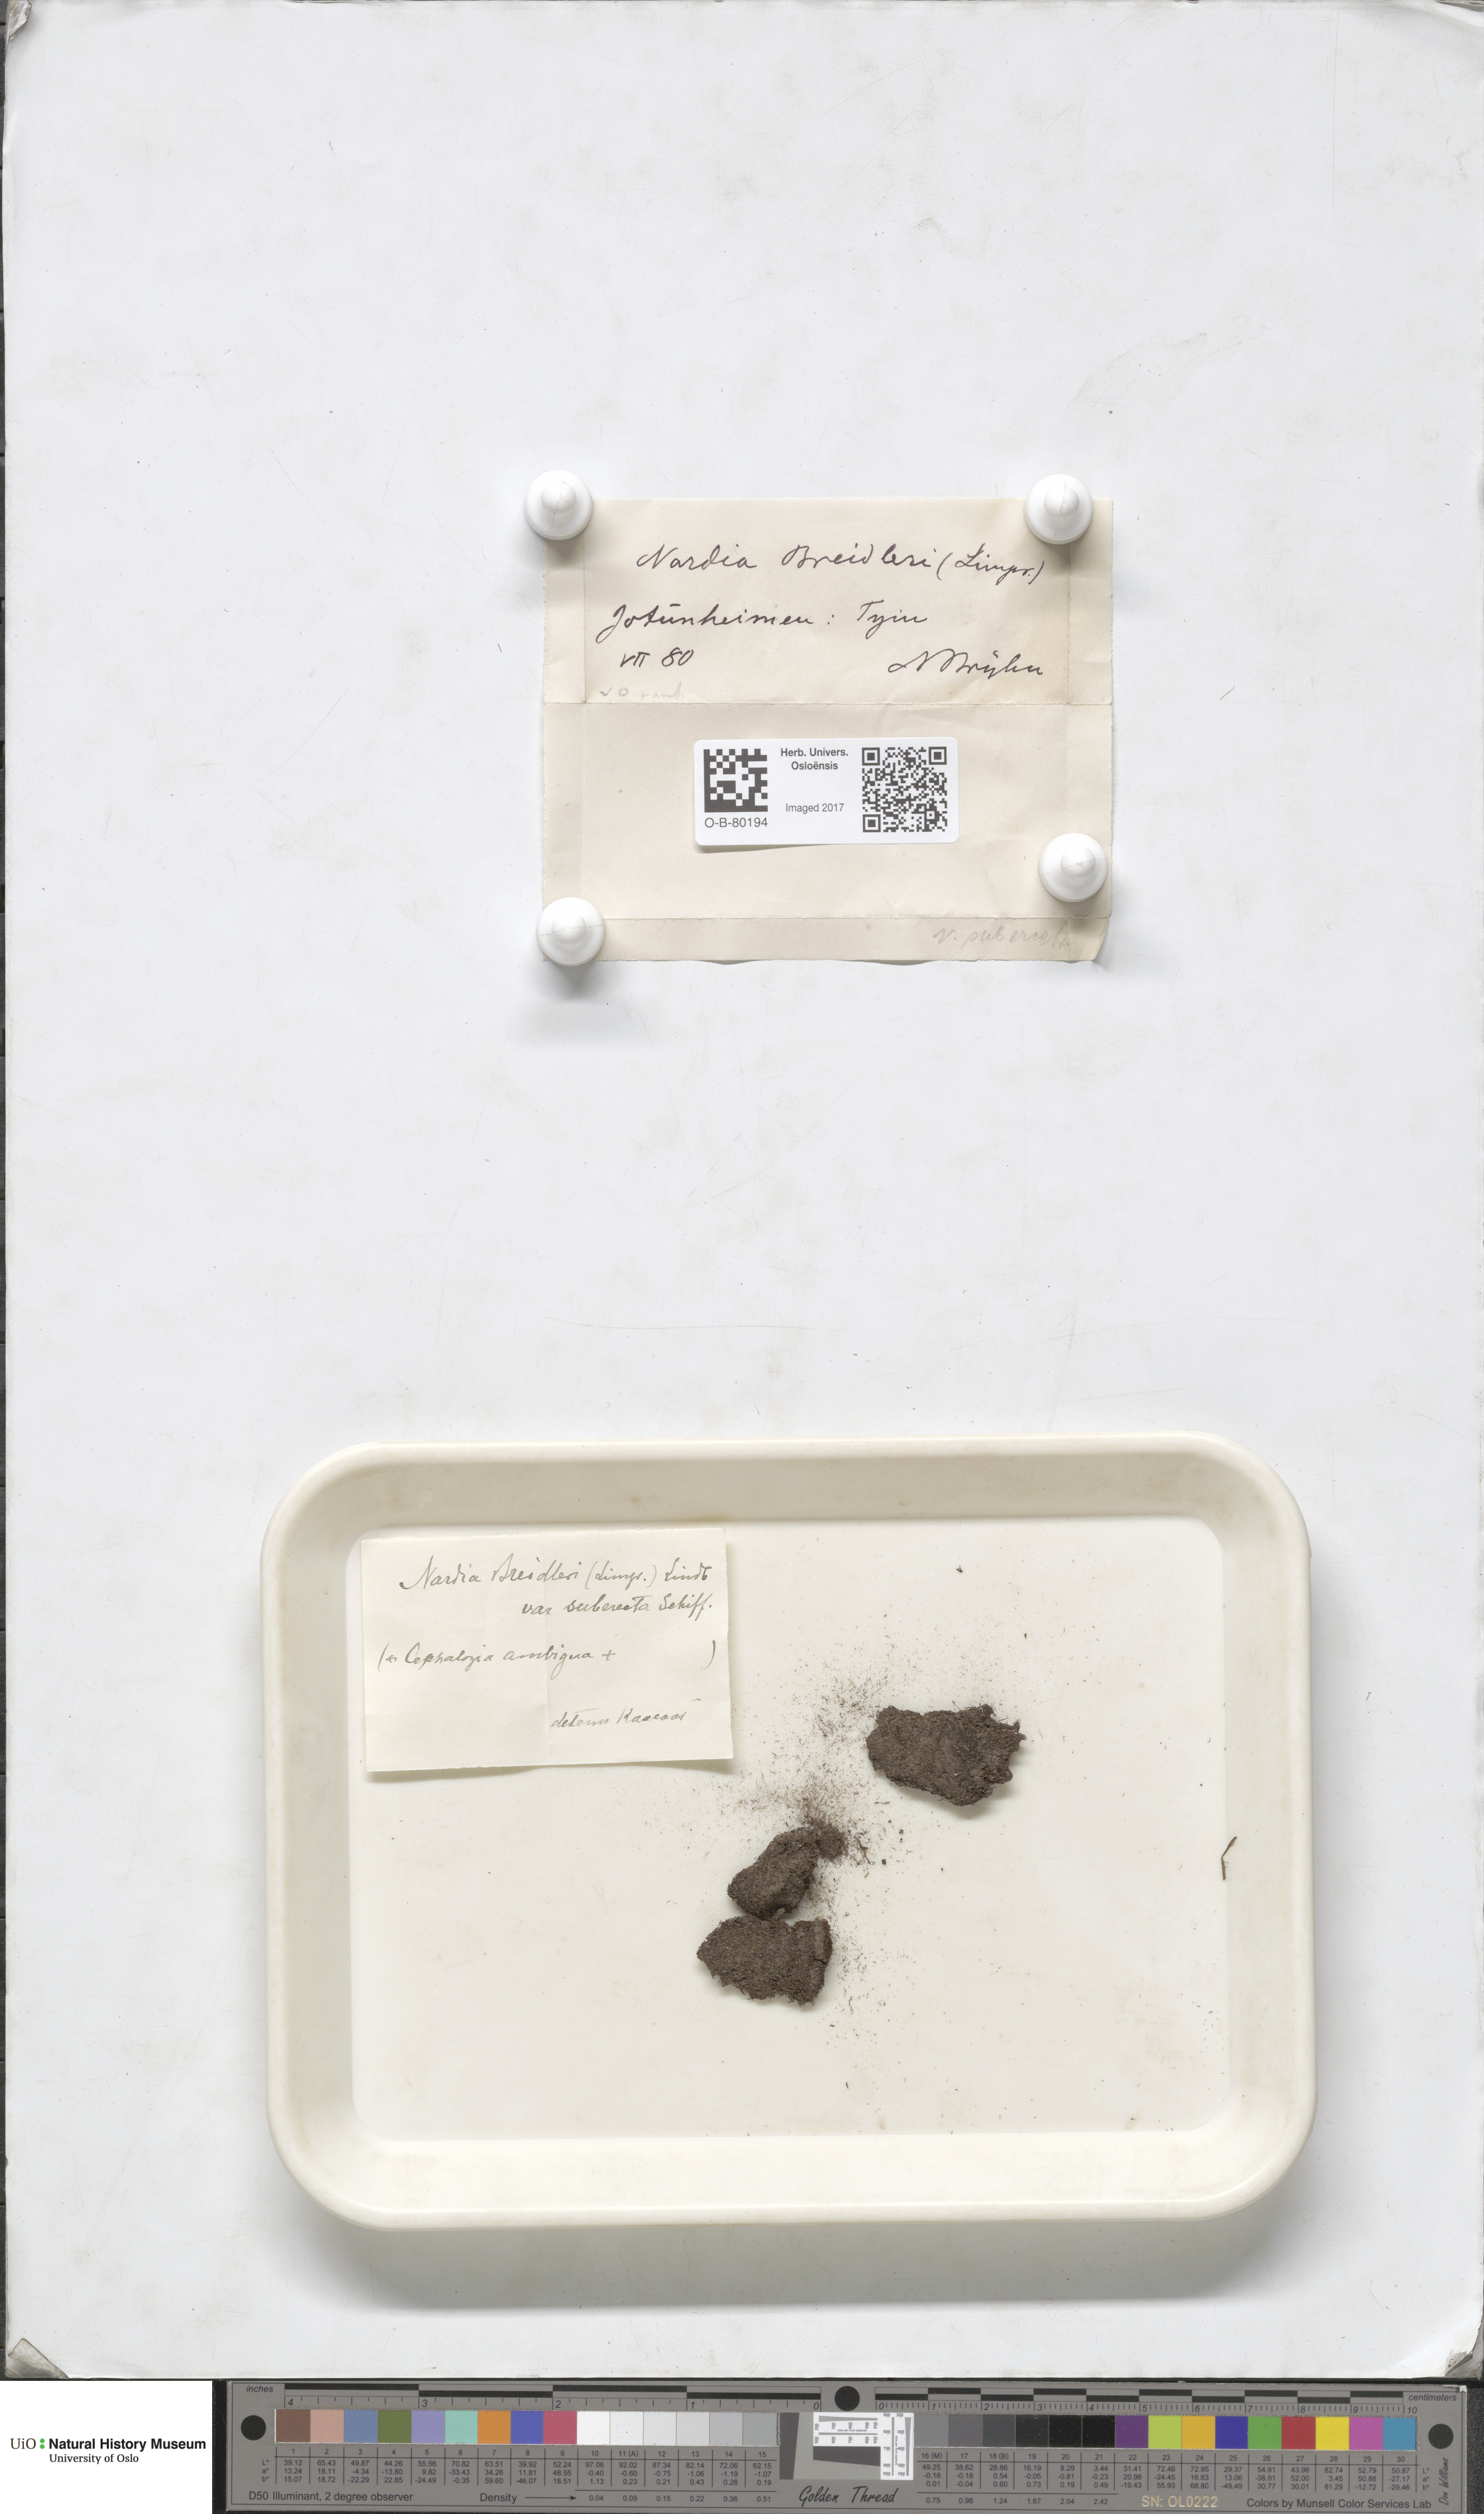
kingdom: Plantae
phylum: Marchantiophyta
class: Jungermanniopsida
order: Jungermanniales
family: Gymnomitriaceae
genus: Nardia
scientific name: Nardia breidleri
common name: Book flapwort
